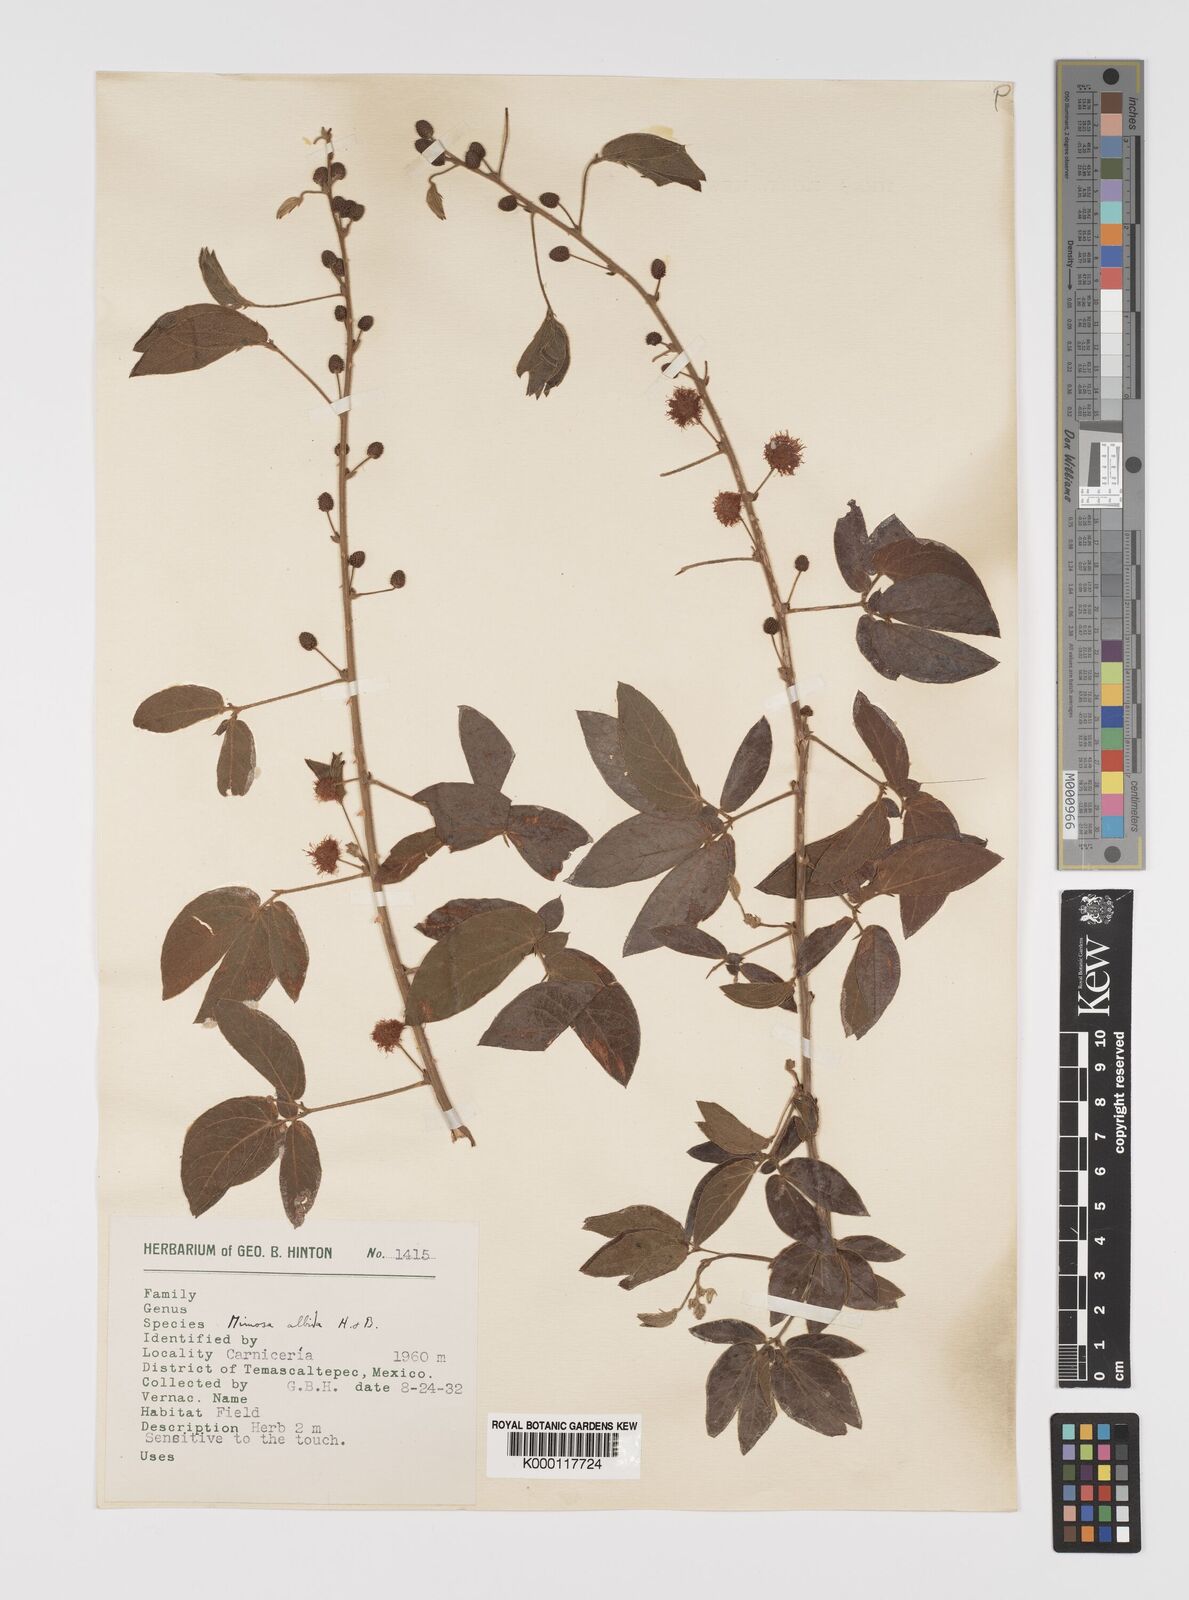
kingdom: Plantae
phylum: Tracheophyta
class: Magnoliopsida
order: Fabales
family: Fabaceae
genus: Mimosa
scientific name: Mimosa albida
